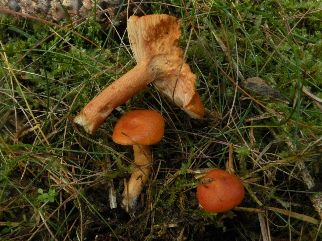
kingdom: Fungi
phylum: Basidiomycota
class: Agaricomycetes
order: Russulales
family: Russulaceae
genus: Lactarius
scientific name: Lactarius aurantiacus
